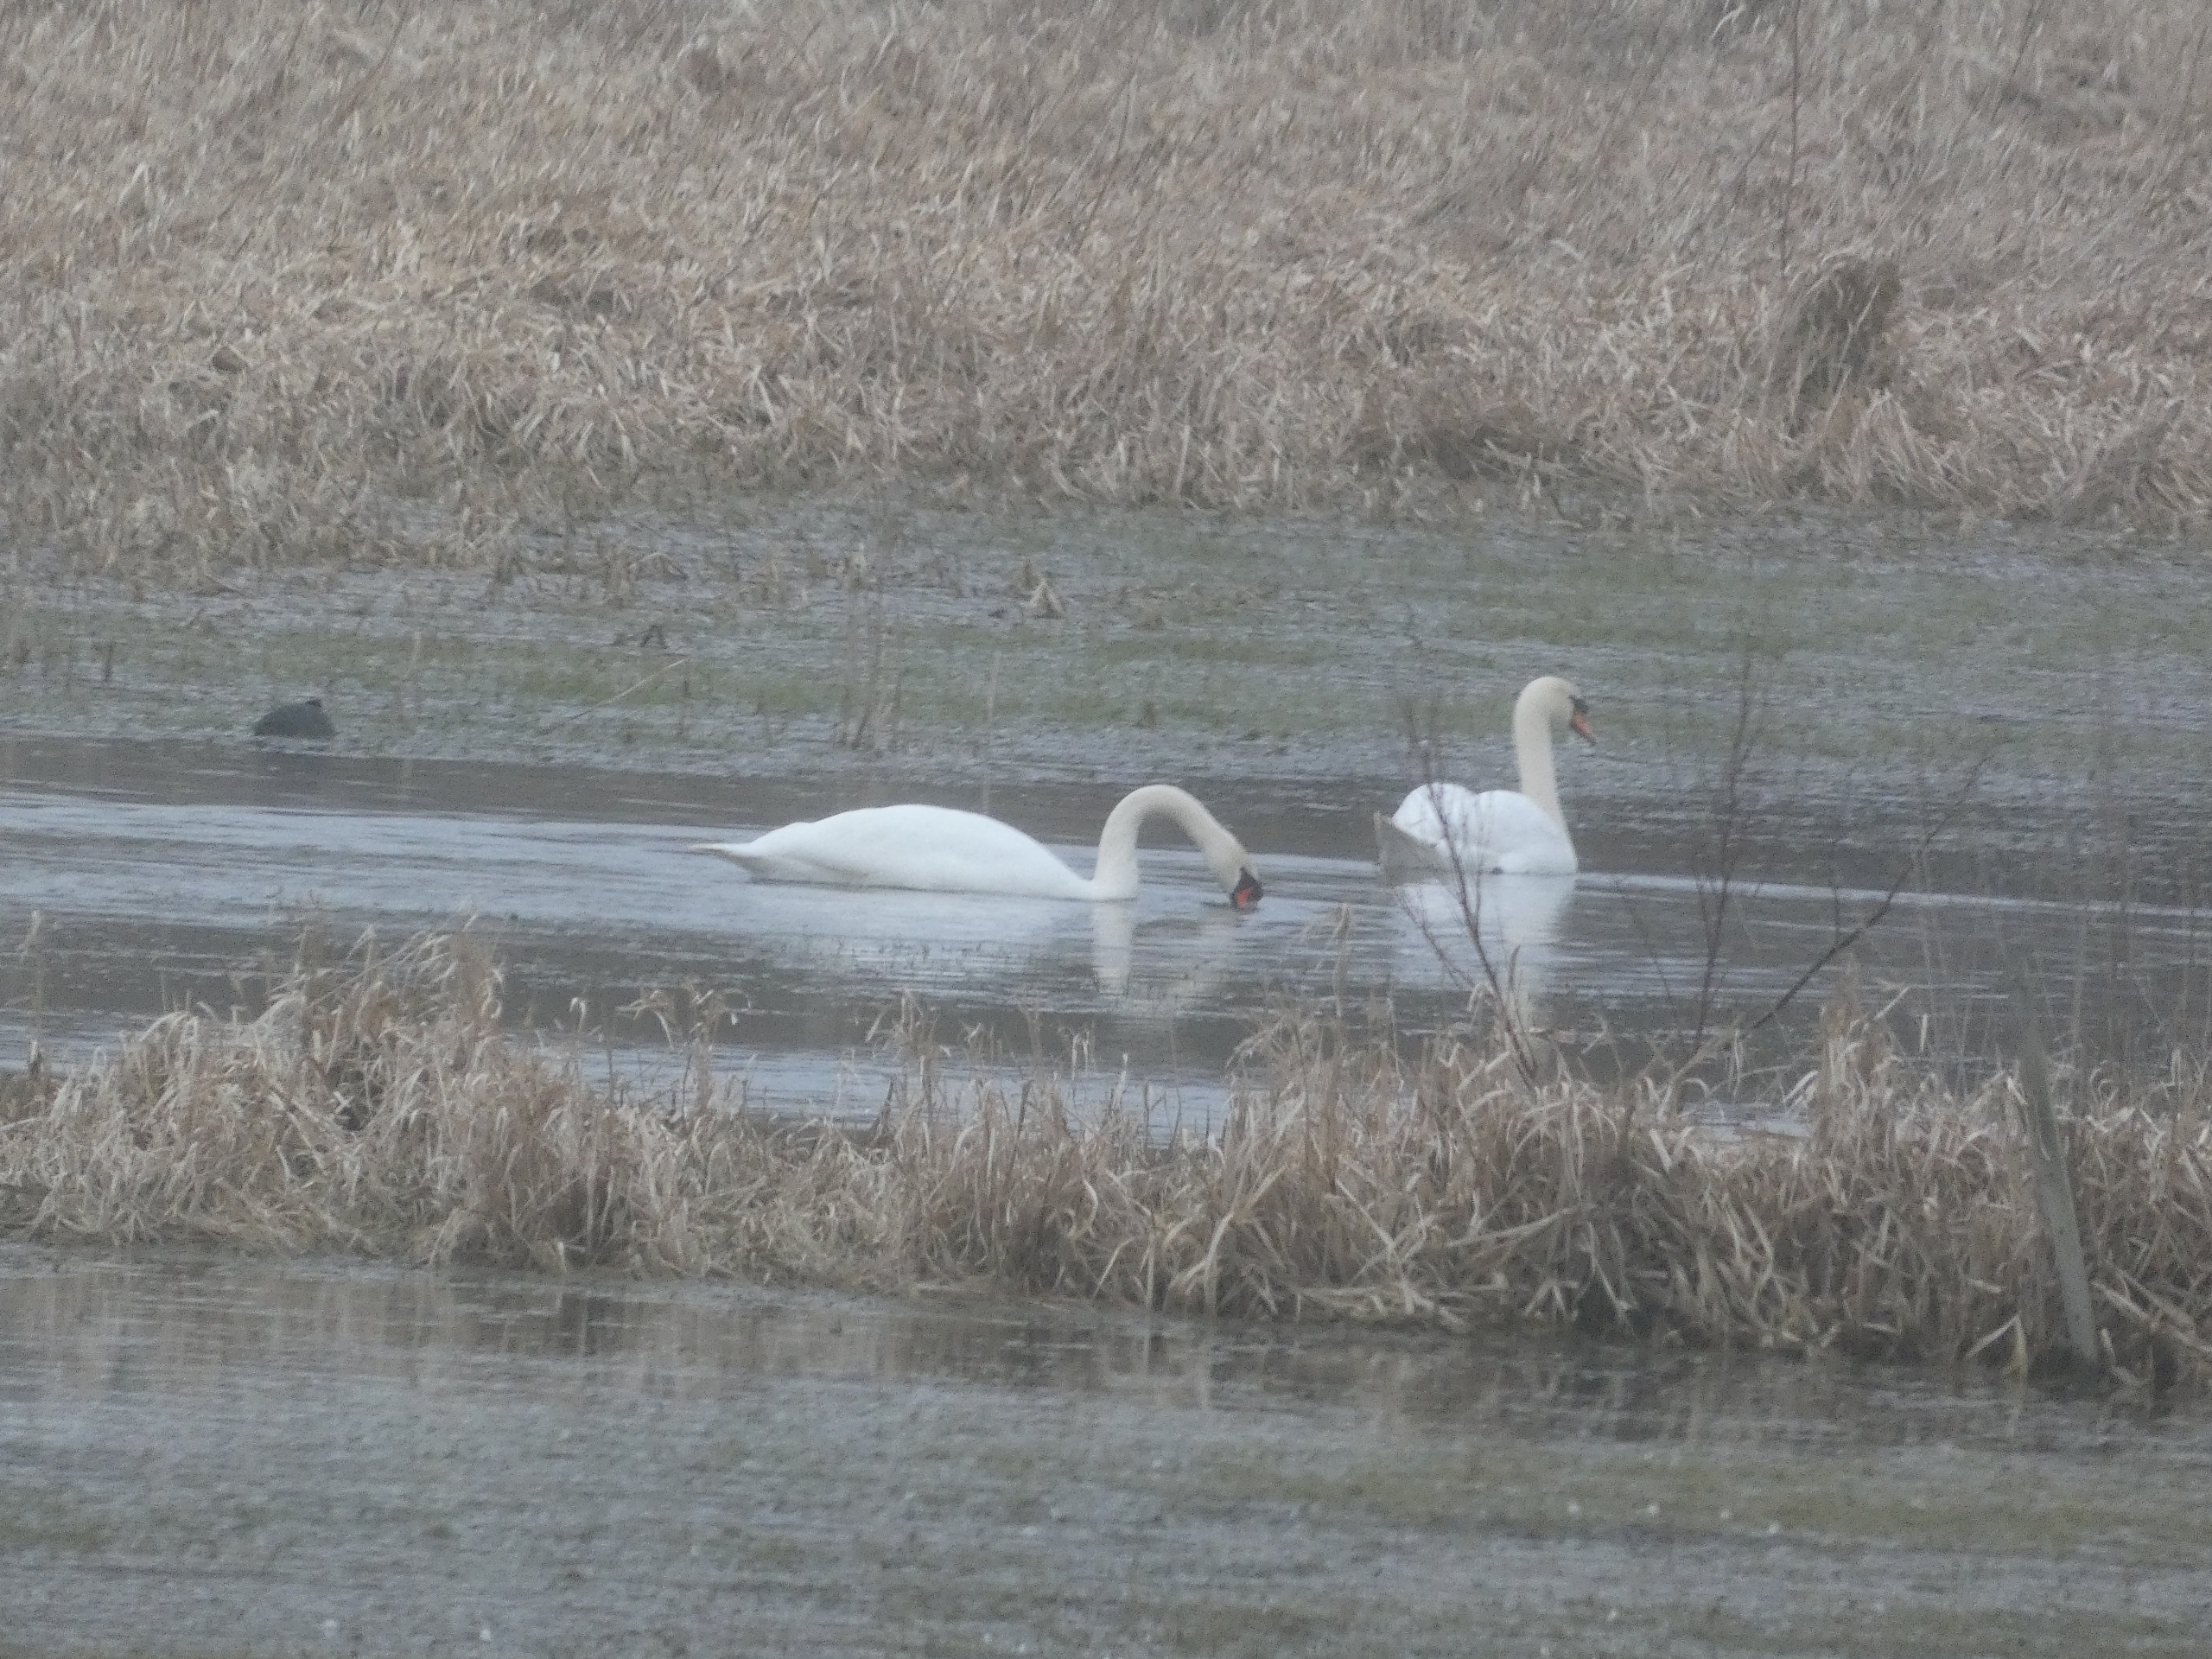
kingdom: Animalia
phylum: Chordata
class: Aves
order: Anseriformes
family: Anatidae
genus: Cygnus
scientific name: Cygnus olor
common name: Knopsvane
